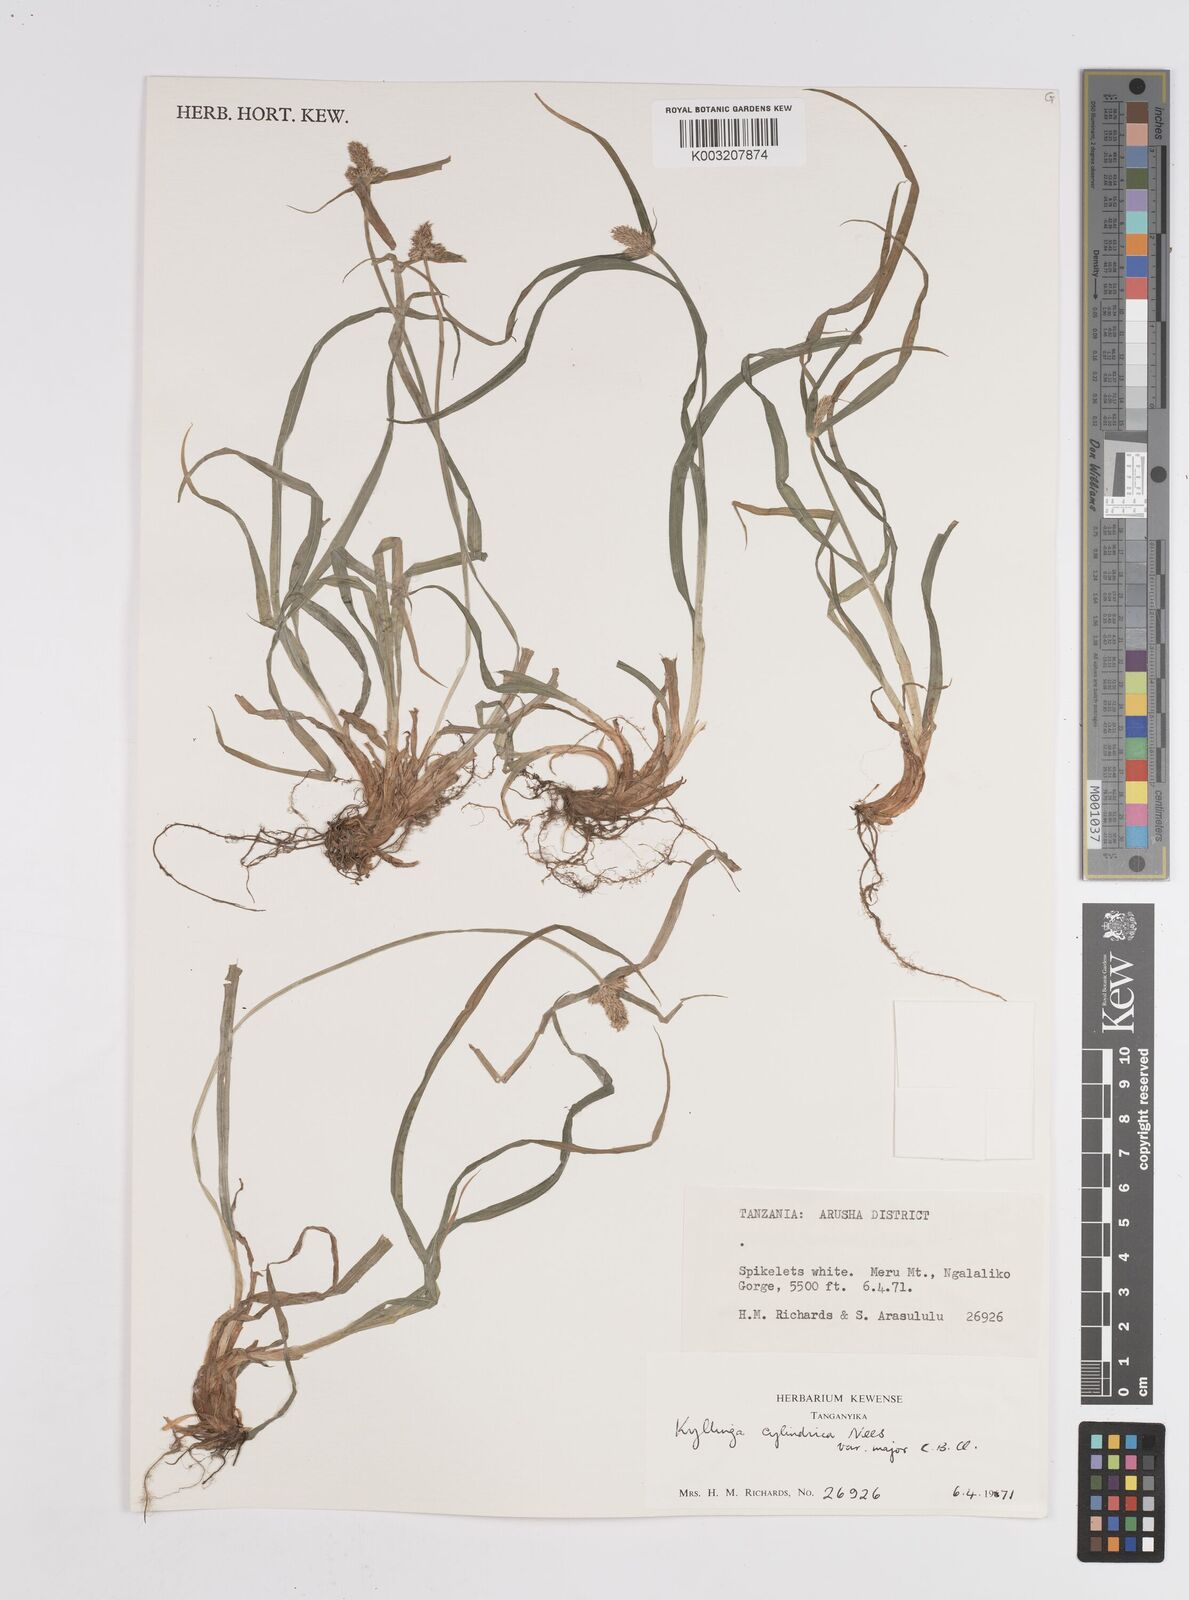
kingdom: Plantae
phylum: Tracheophyta
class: Liliopsida
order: Poales
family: Cyperaceae
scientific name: Cyperaceae
